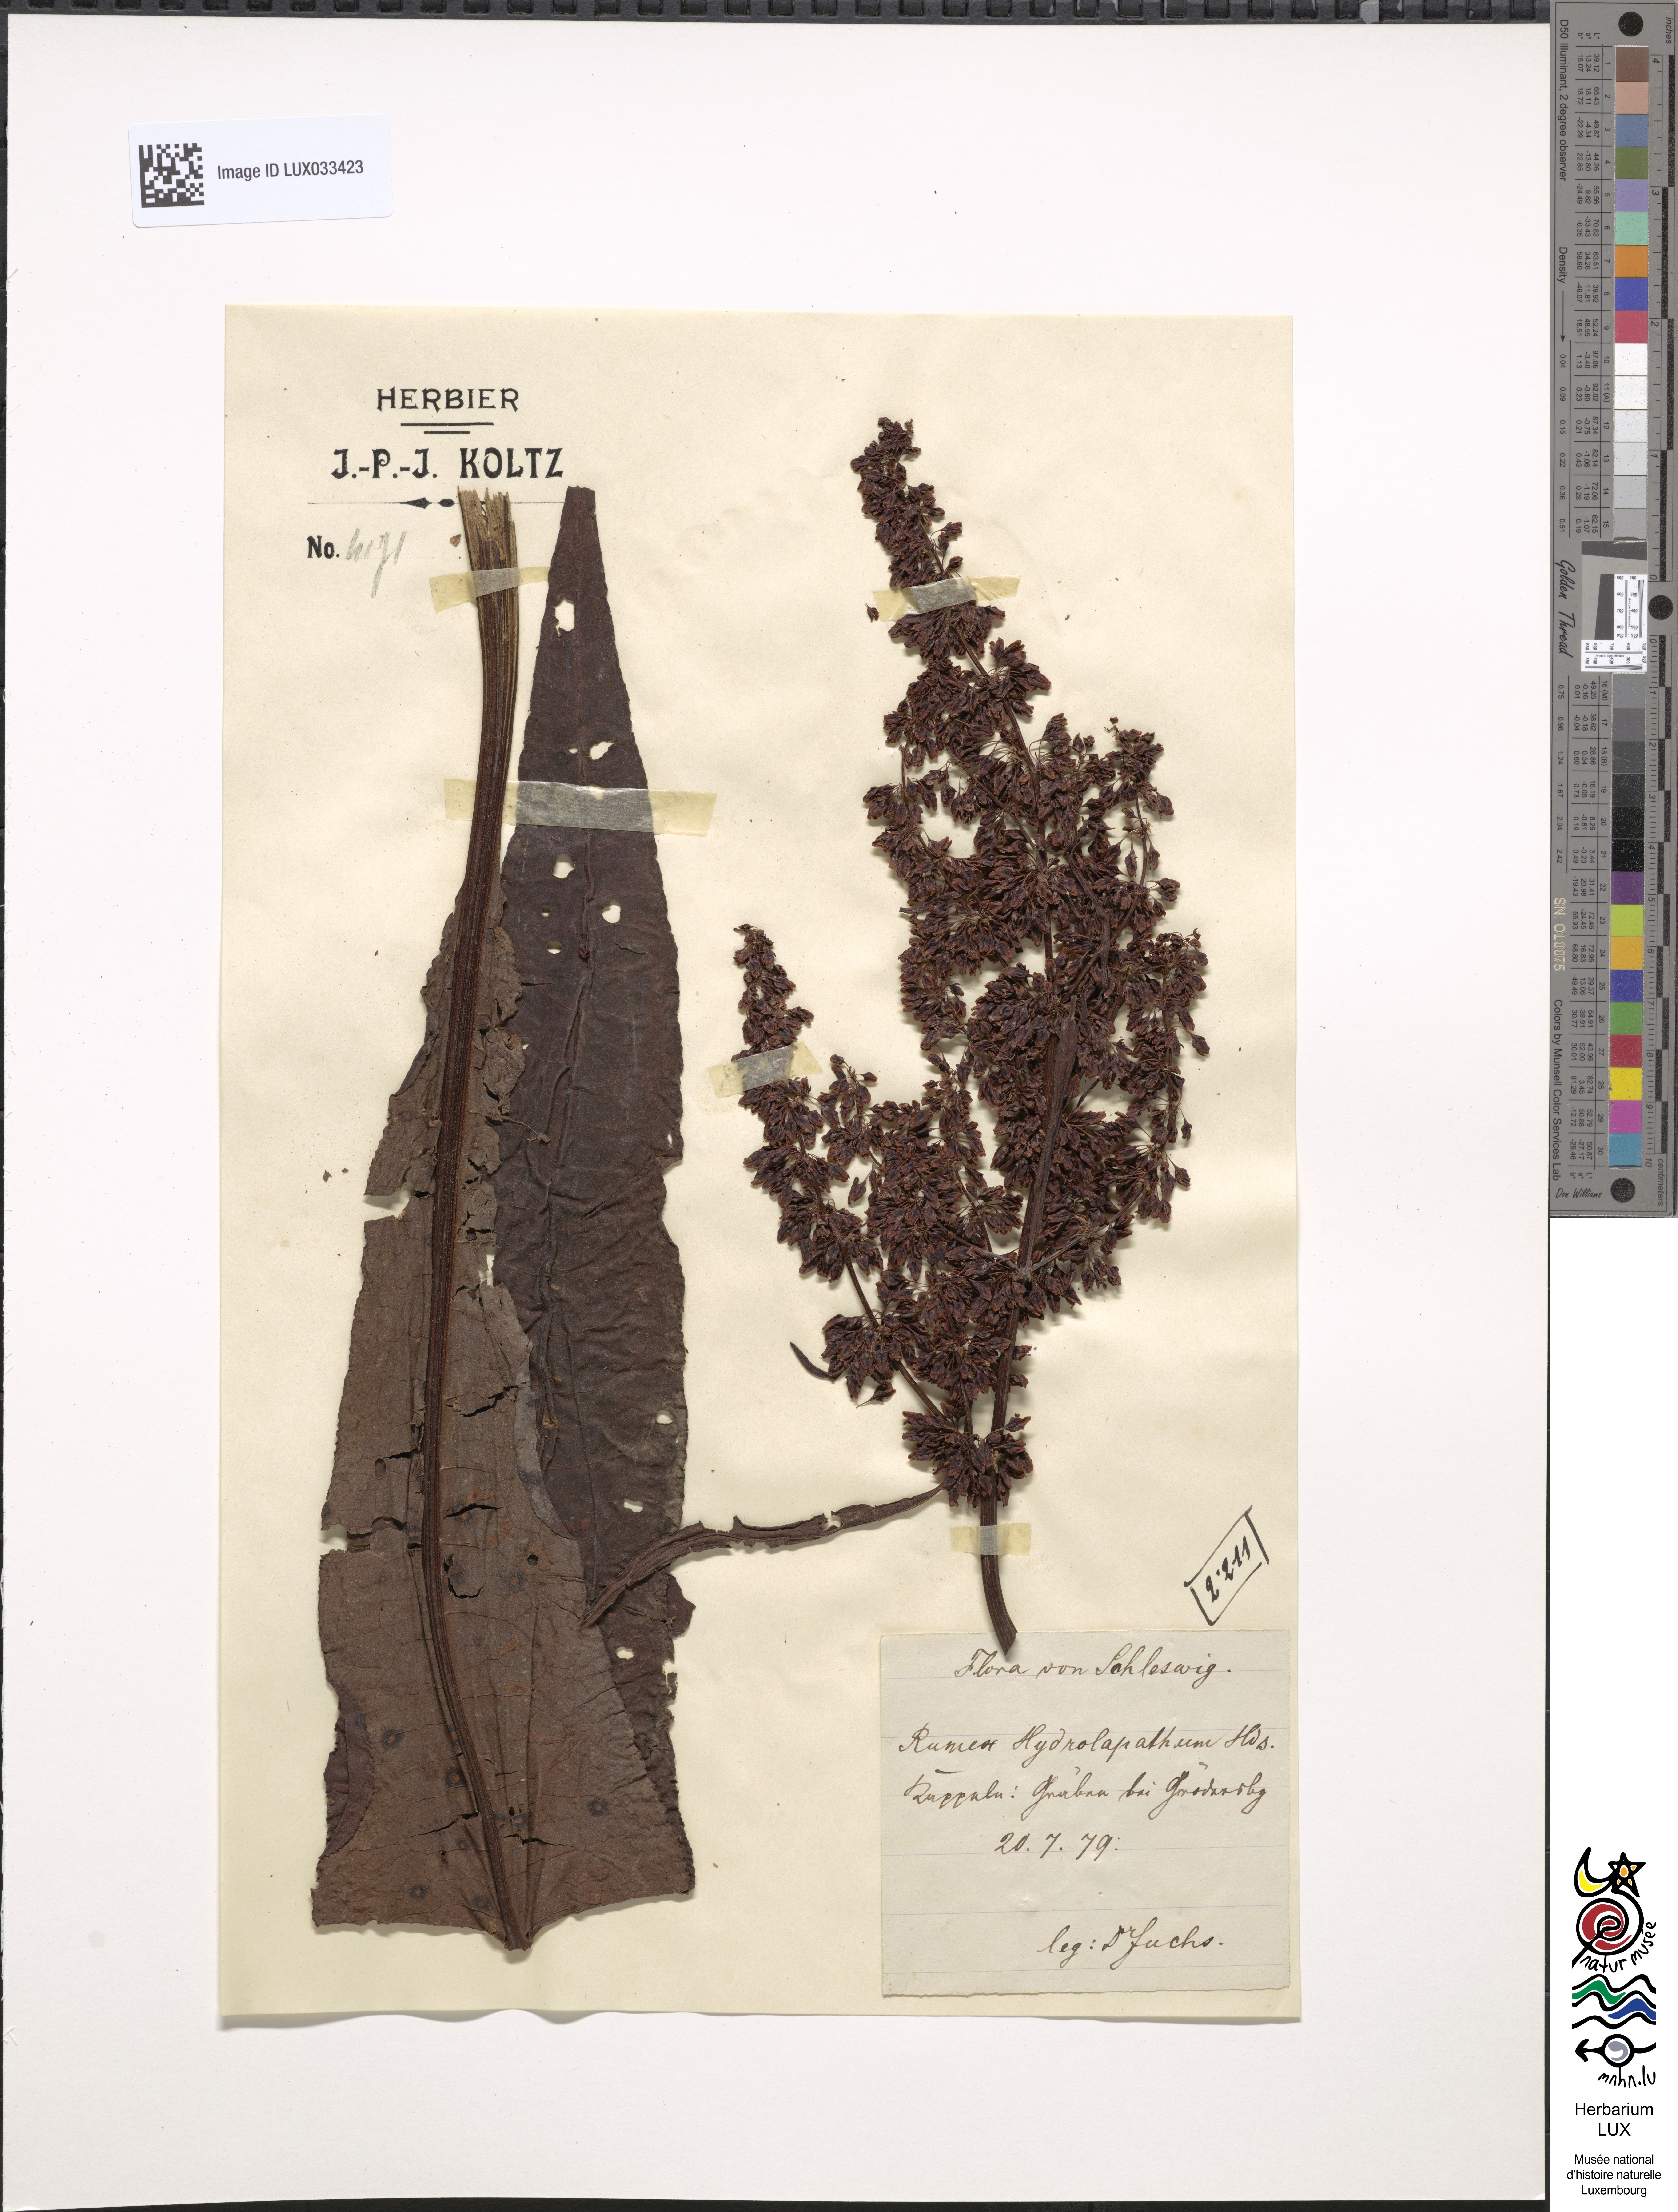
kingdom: Plantae
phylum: Tracheophyta
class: Magnoliopsida
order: Caryophyllales
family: Polygonaceae
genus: Rumex
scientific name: Rumex hydrolapathum
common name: Water dock
